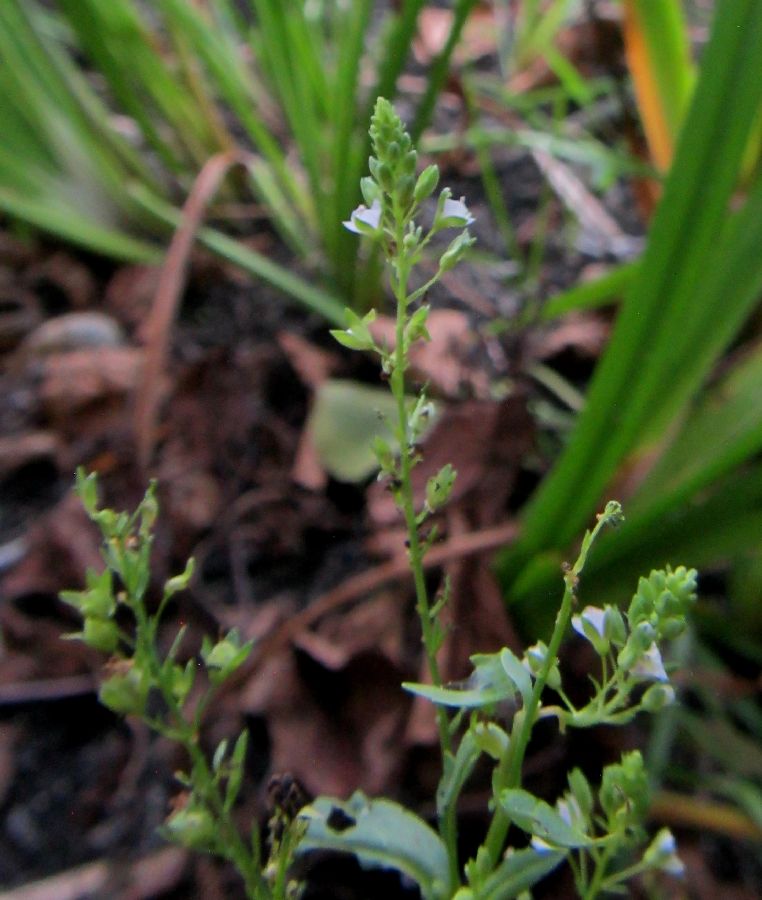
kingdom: Plantae
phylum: Tracheophyta
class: Magnoliopsida
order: Lamiales
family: Plantaginaceae
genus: Veronica
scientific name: Veronica anagalloides
